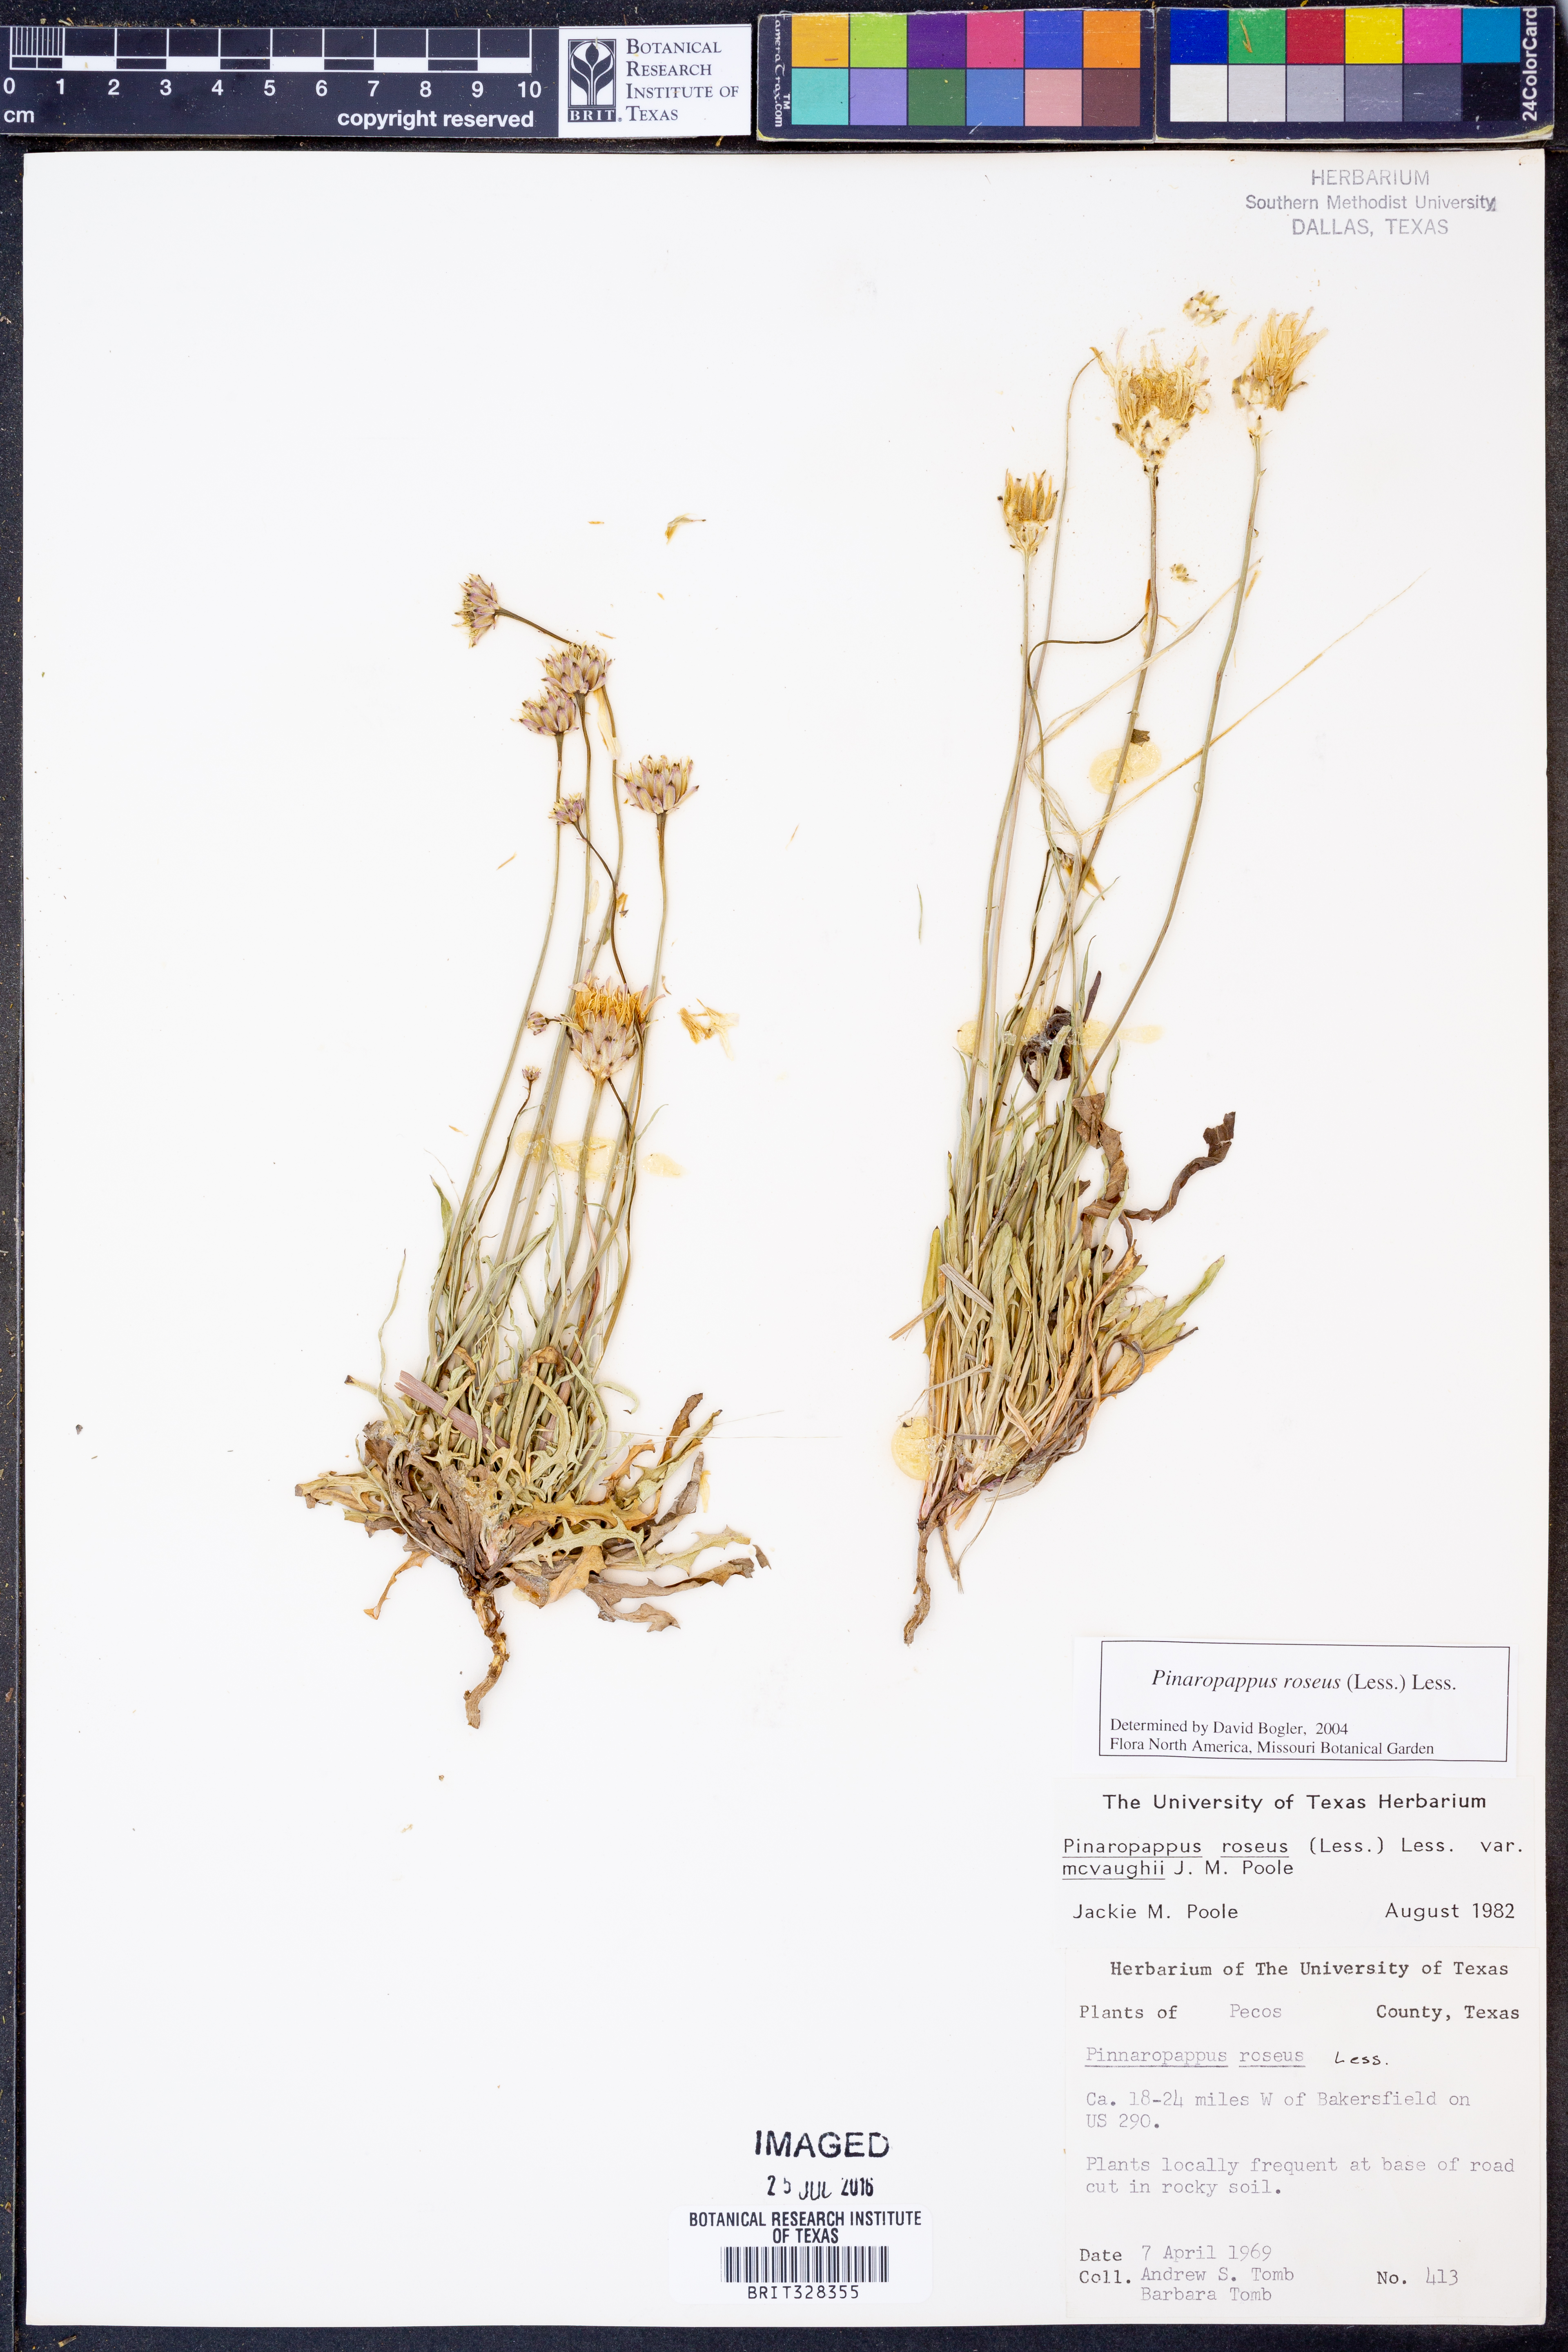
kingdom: Plantae
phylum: Tracheophyta
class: Magnoliopsida
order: Asterales
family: Asteraceae
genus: Pinaropappus
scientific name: Pinaropappus roseus
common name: Rock-lettuce
